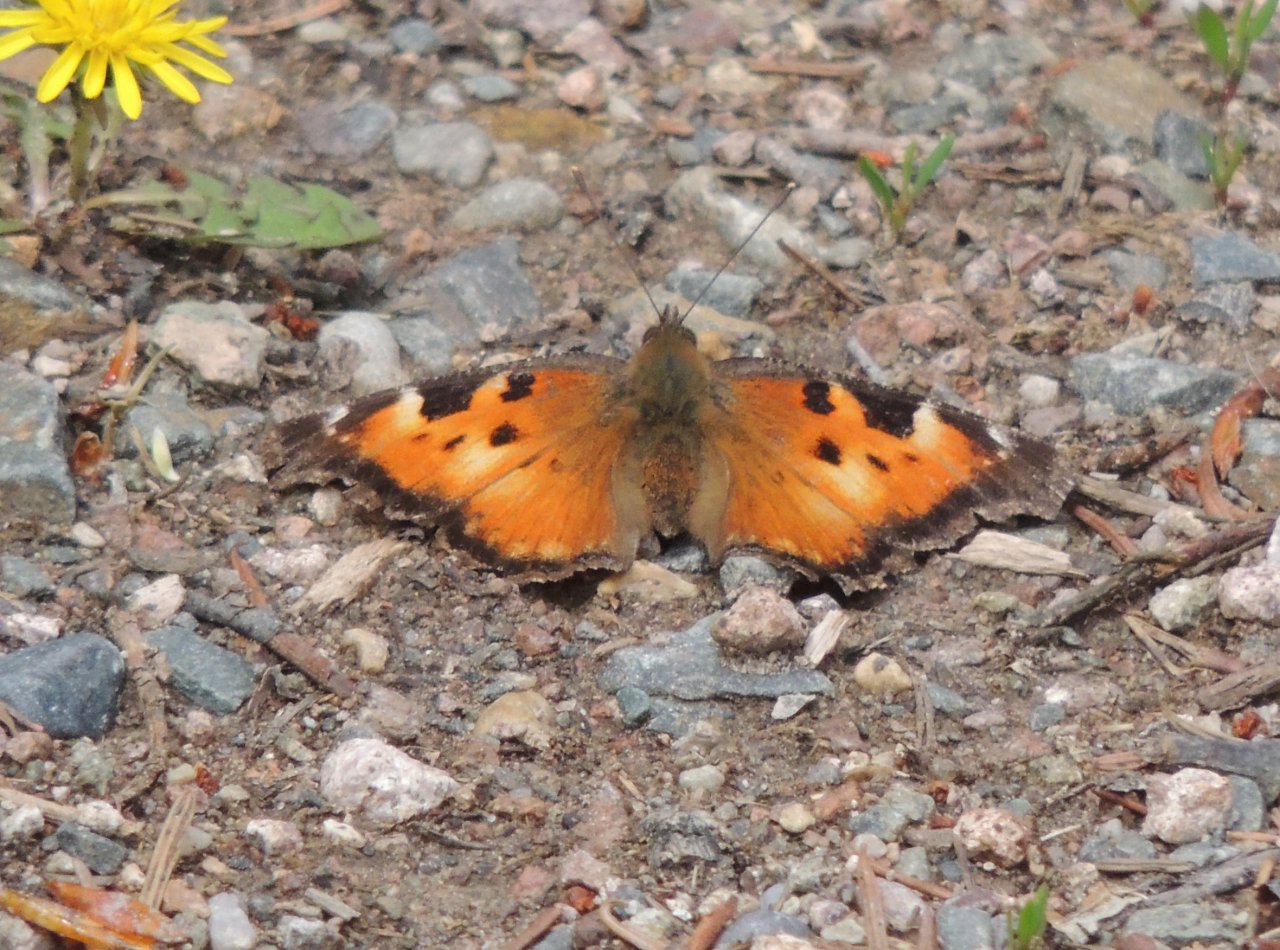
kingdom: Animalia
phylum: Arthropoda
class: Insecta
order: Lepidoptera
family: Nymphalidae
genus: Nymphalis
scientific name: Nymphalis californica
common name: California Tortoiseshell
